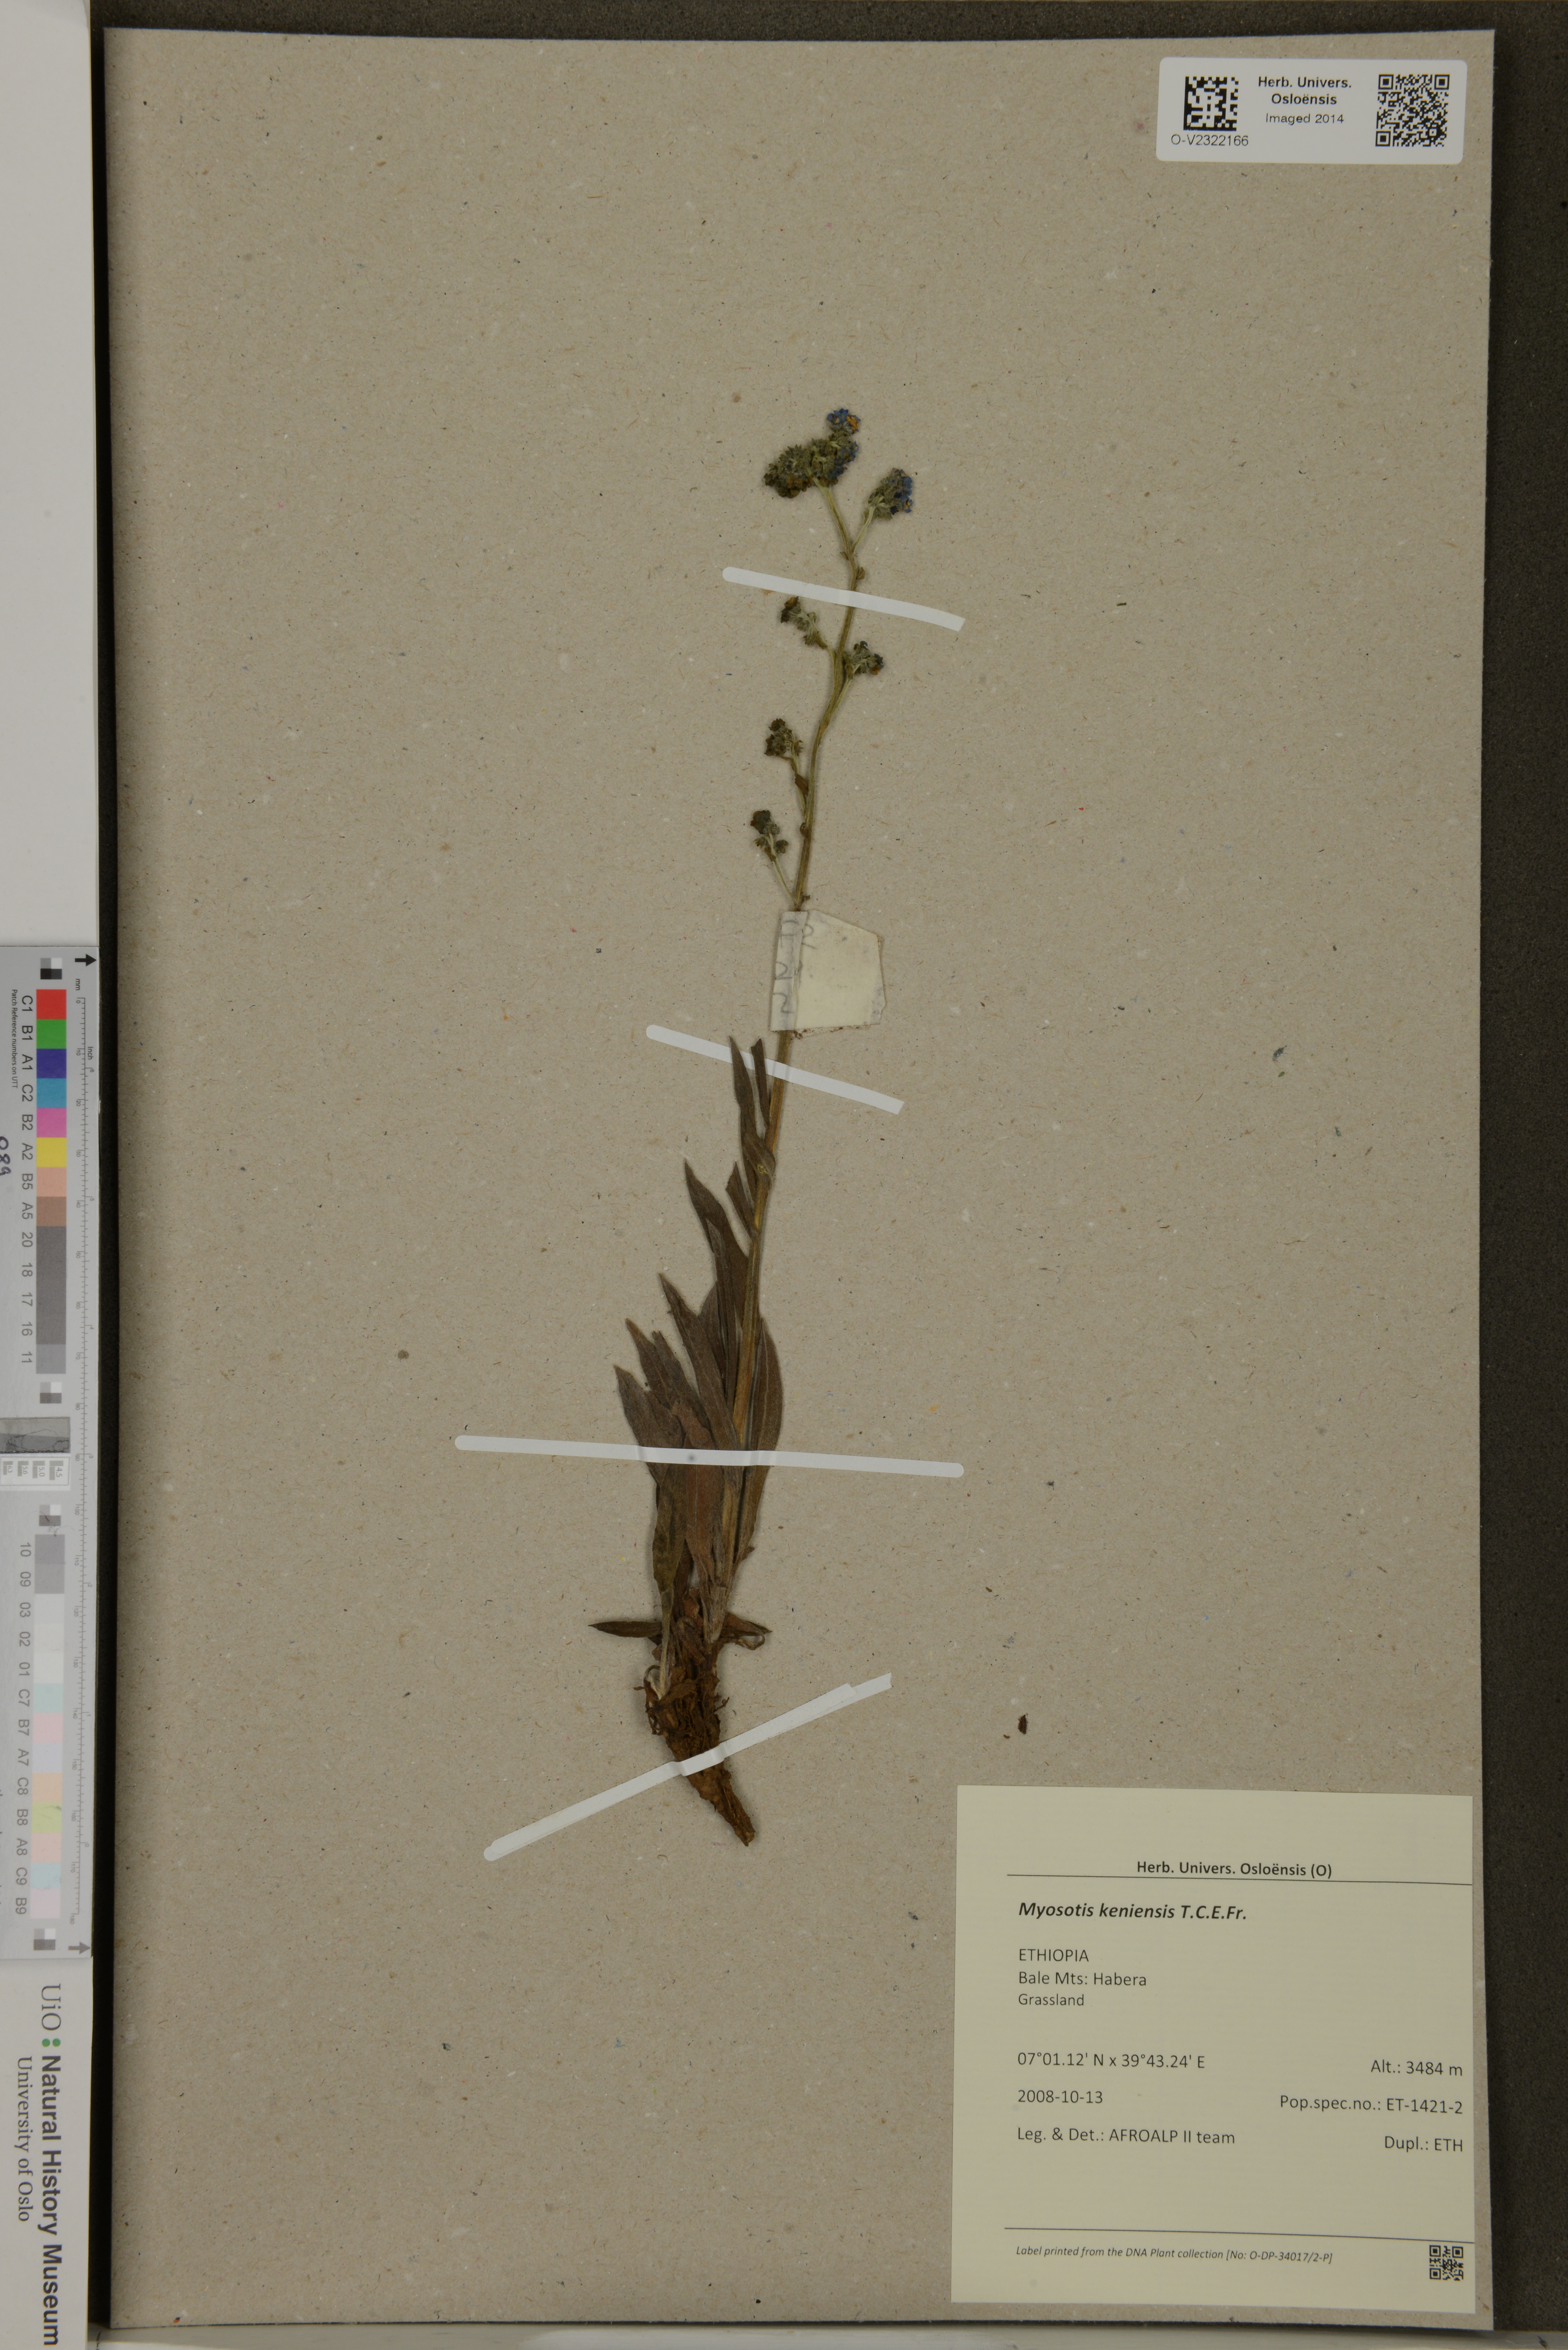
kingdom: Plantae
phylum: Tracheophyta
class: Magnoliopsida
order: Boraginales
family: Boraginaceae
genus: Myosotis
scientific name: Myosotis keniensis
